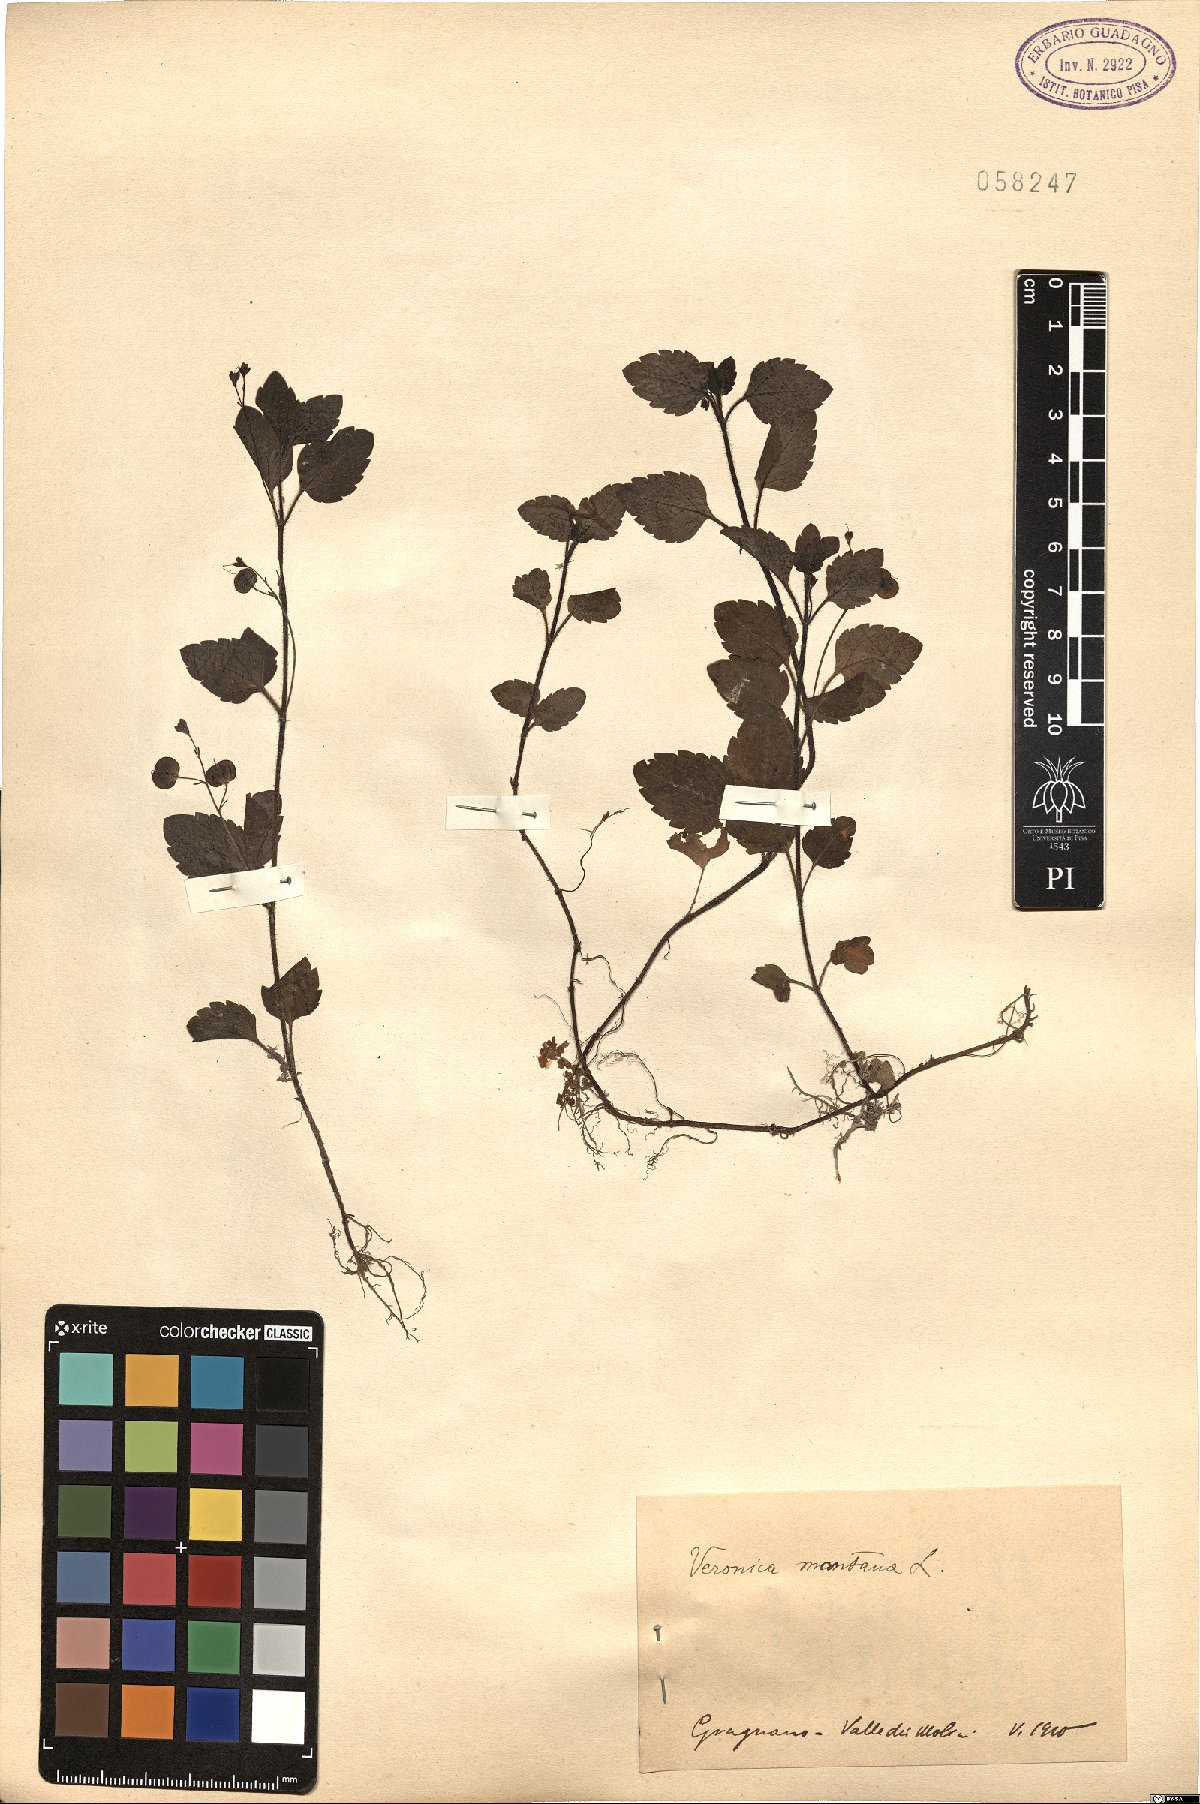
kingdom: Plantae
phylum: Tracheophyta
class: Magnoliopsida
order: Lamiales
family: Plantaginaceae
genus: Veronica
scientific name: Veronica montana
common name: Wood speedwell
